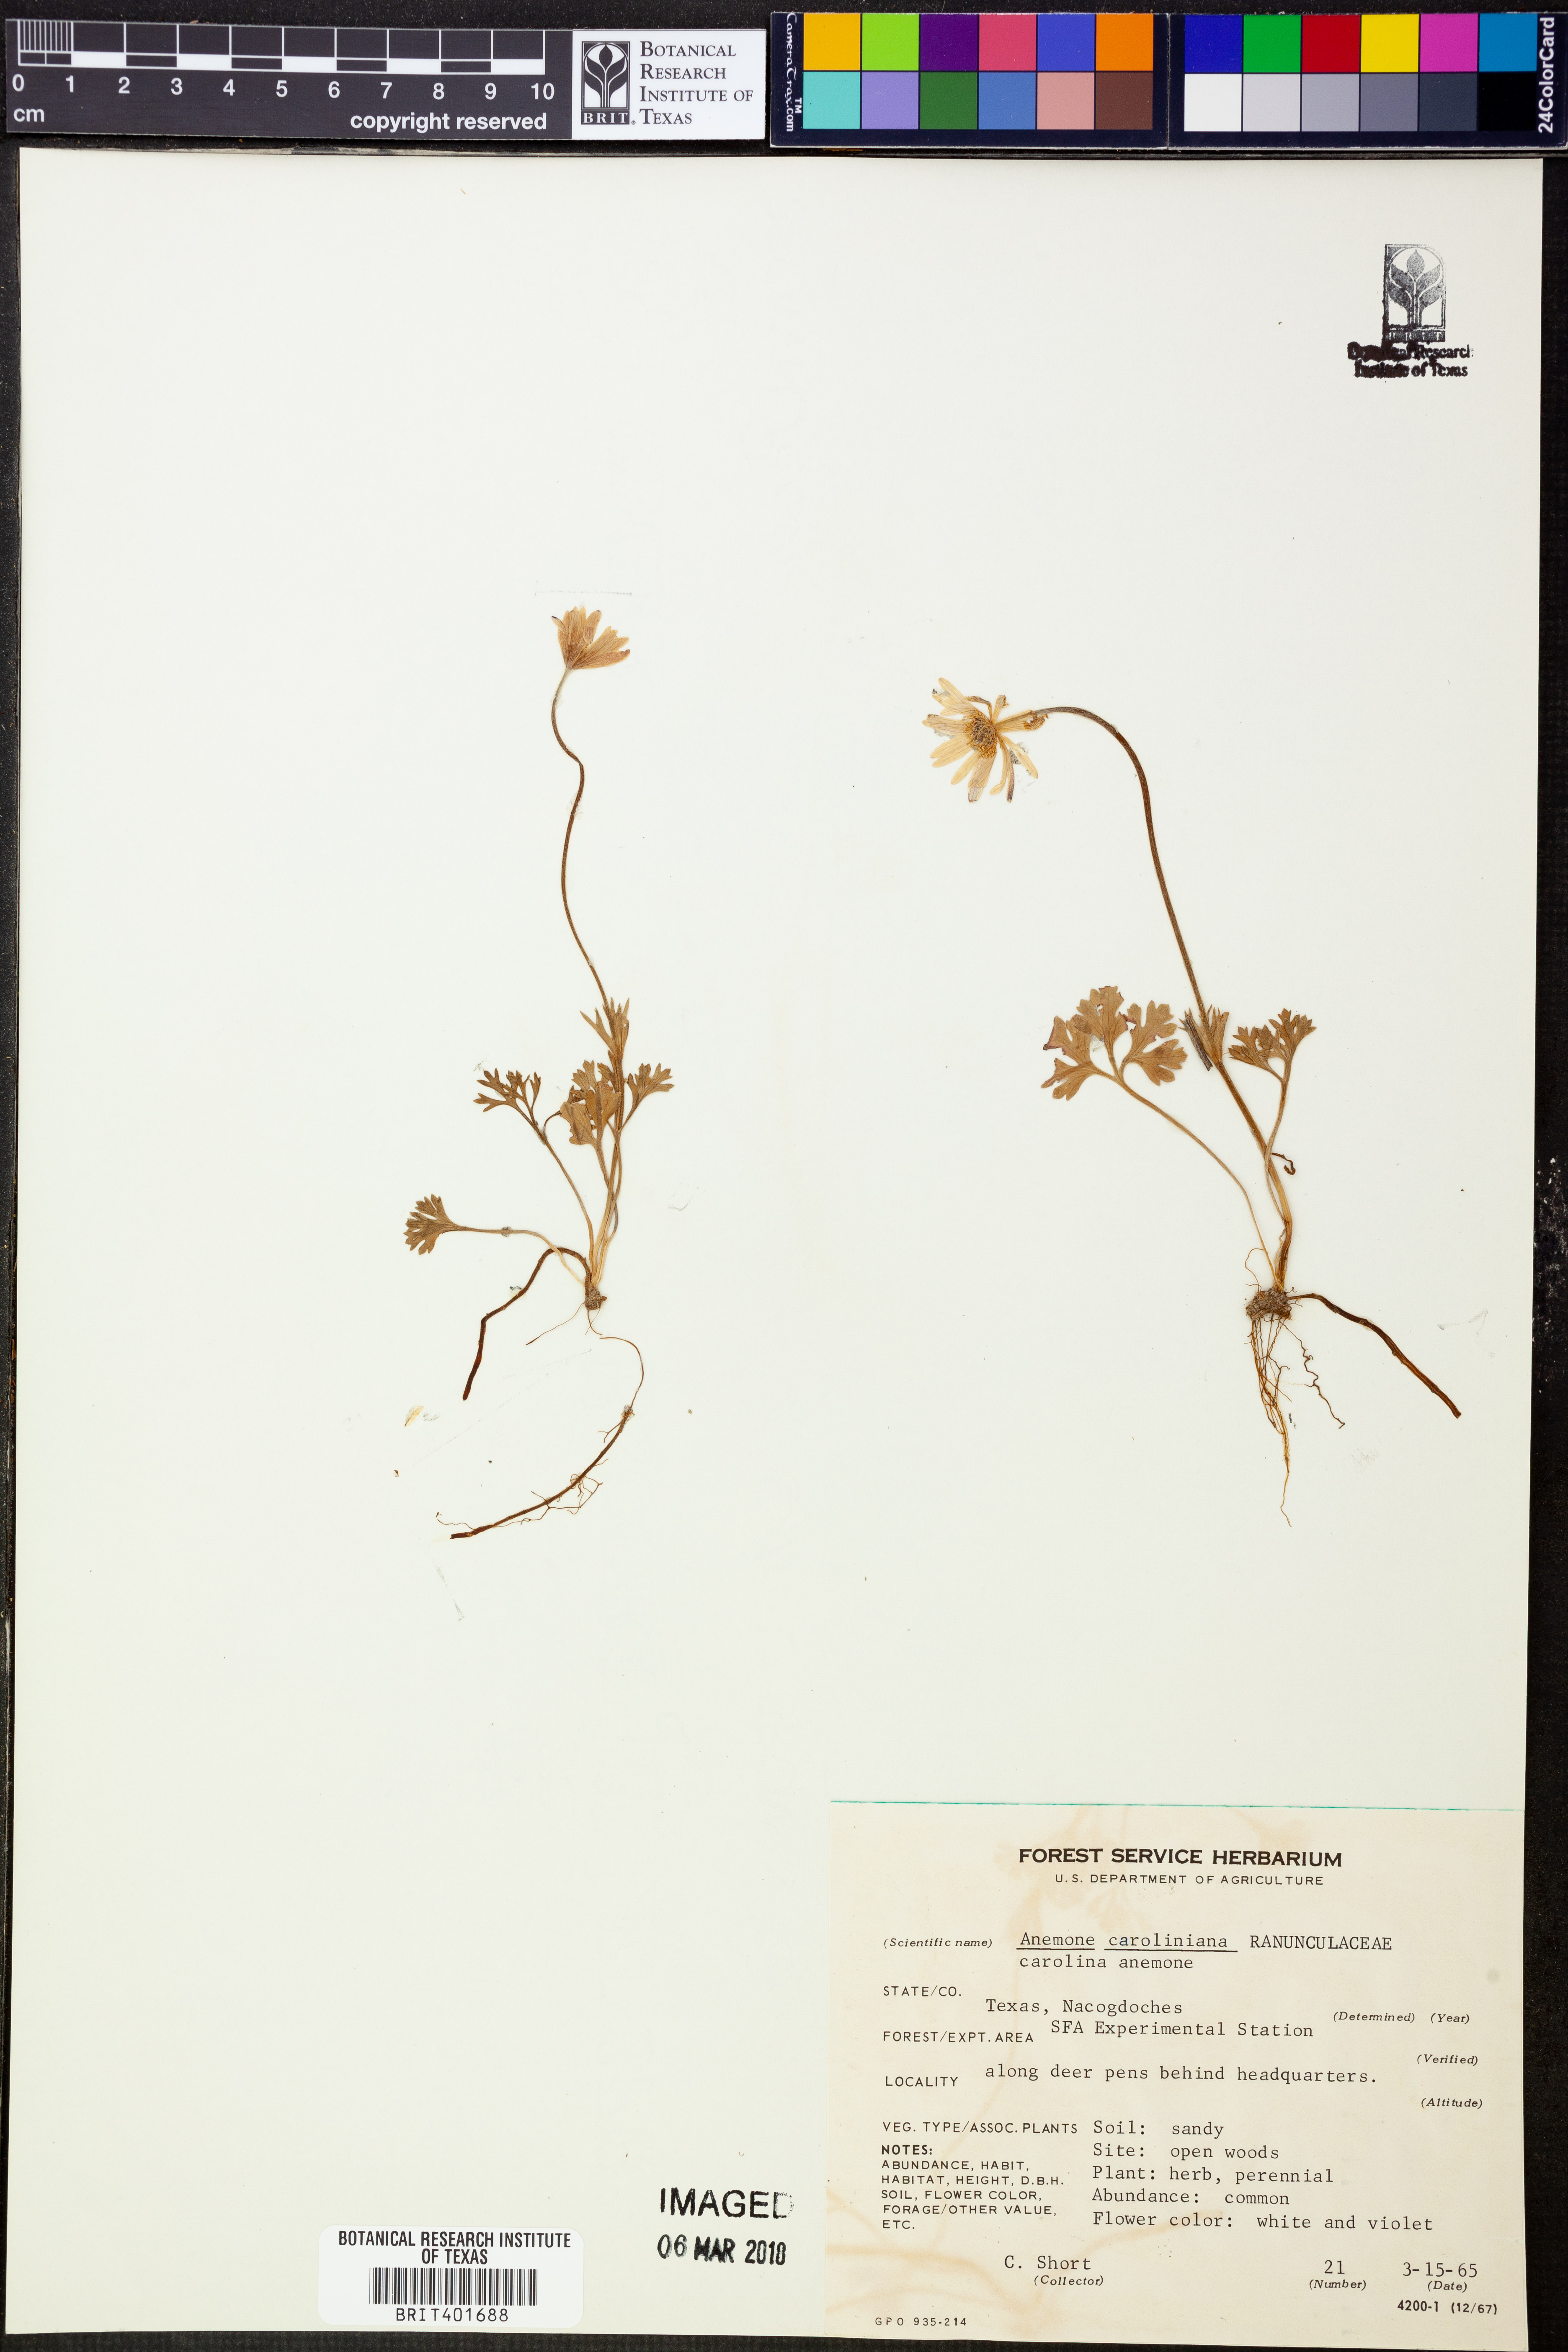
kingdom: Plantae
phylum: Tracheophyta
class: Magnoliopsida
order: Ranunculales
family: Ranunculaceae
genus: Anemone
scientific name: Anemone caroliniana
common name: Carolina anemone
